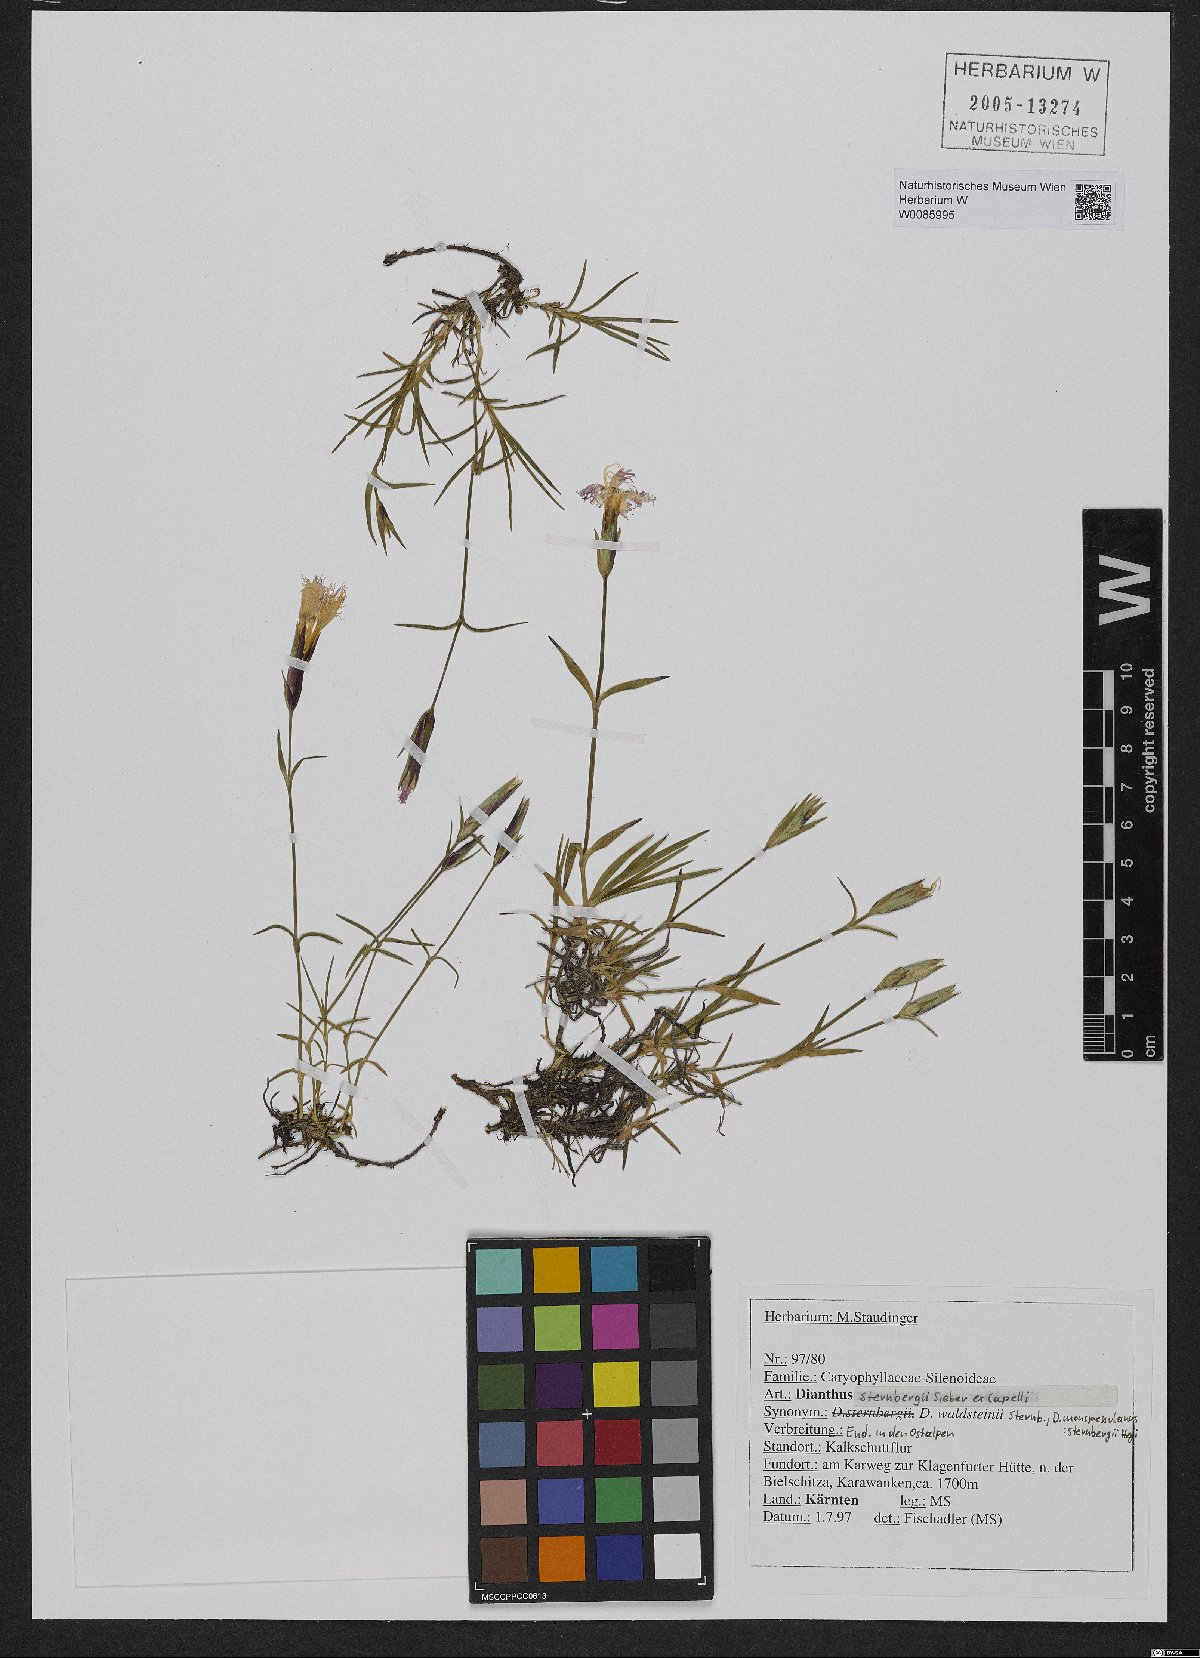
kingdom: Plantae
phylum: Tracheophyta
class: Magnoliopsida
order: Caryophyllales
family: Caryophyllaceae
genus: Dianthus
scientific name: Dianthus sternbergii
